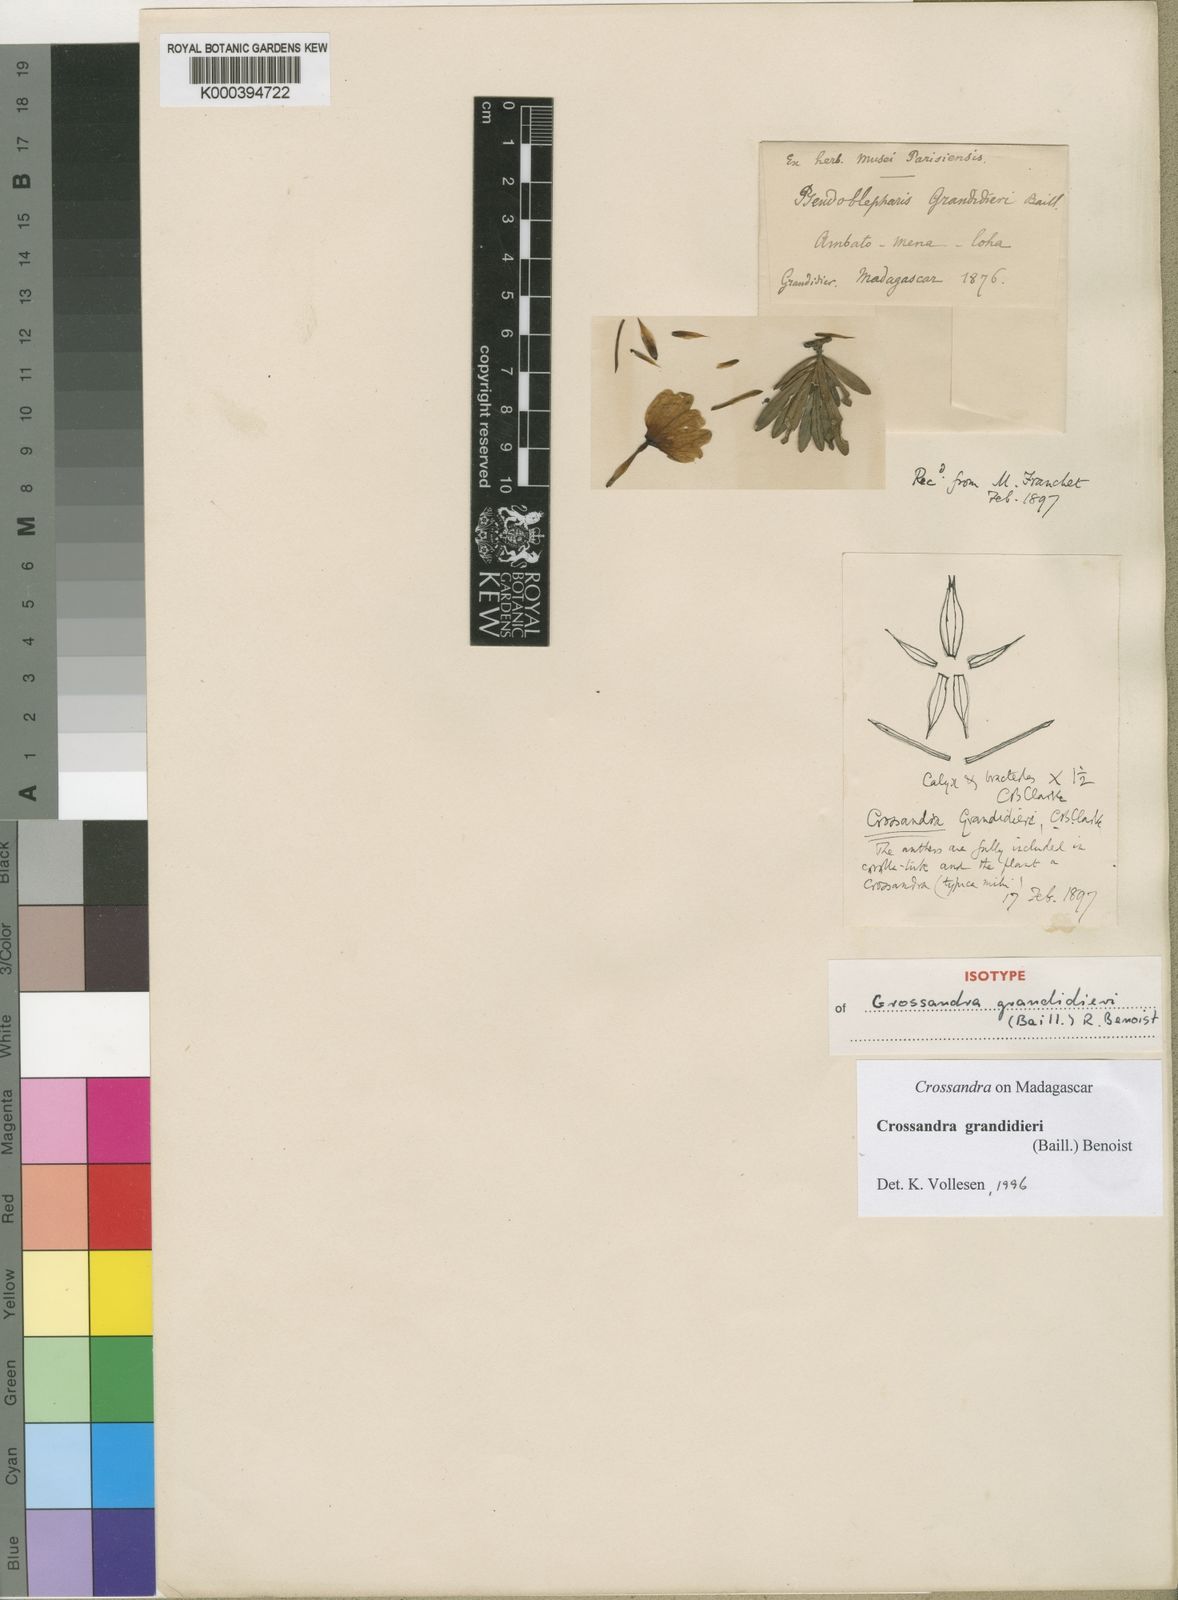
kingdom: Plantae
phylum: Tracheophyta
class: Magnoliopsida
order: Lamiales
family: Acanthaceae
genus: Crossandra
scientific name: Crossandra grandidieri
